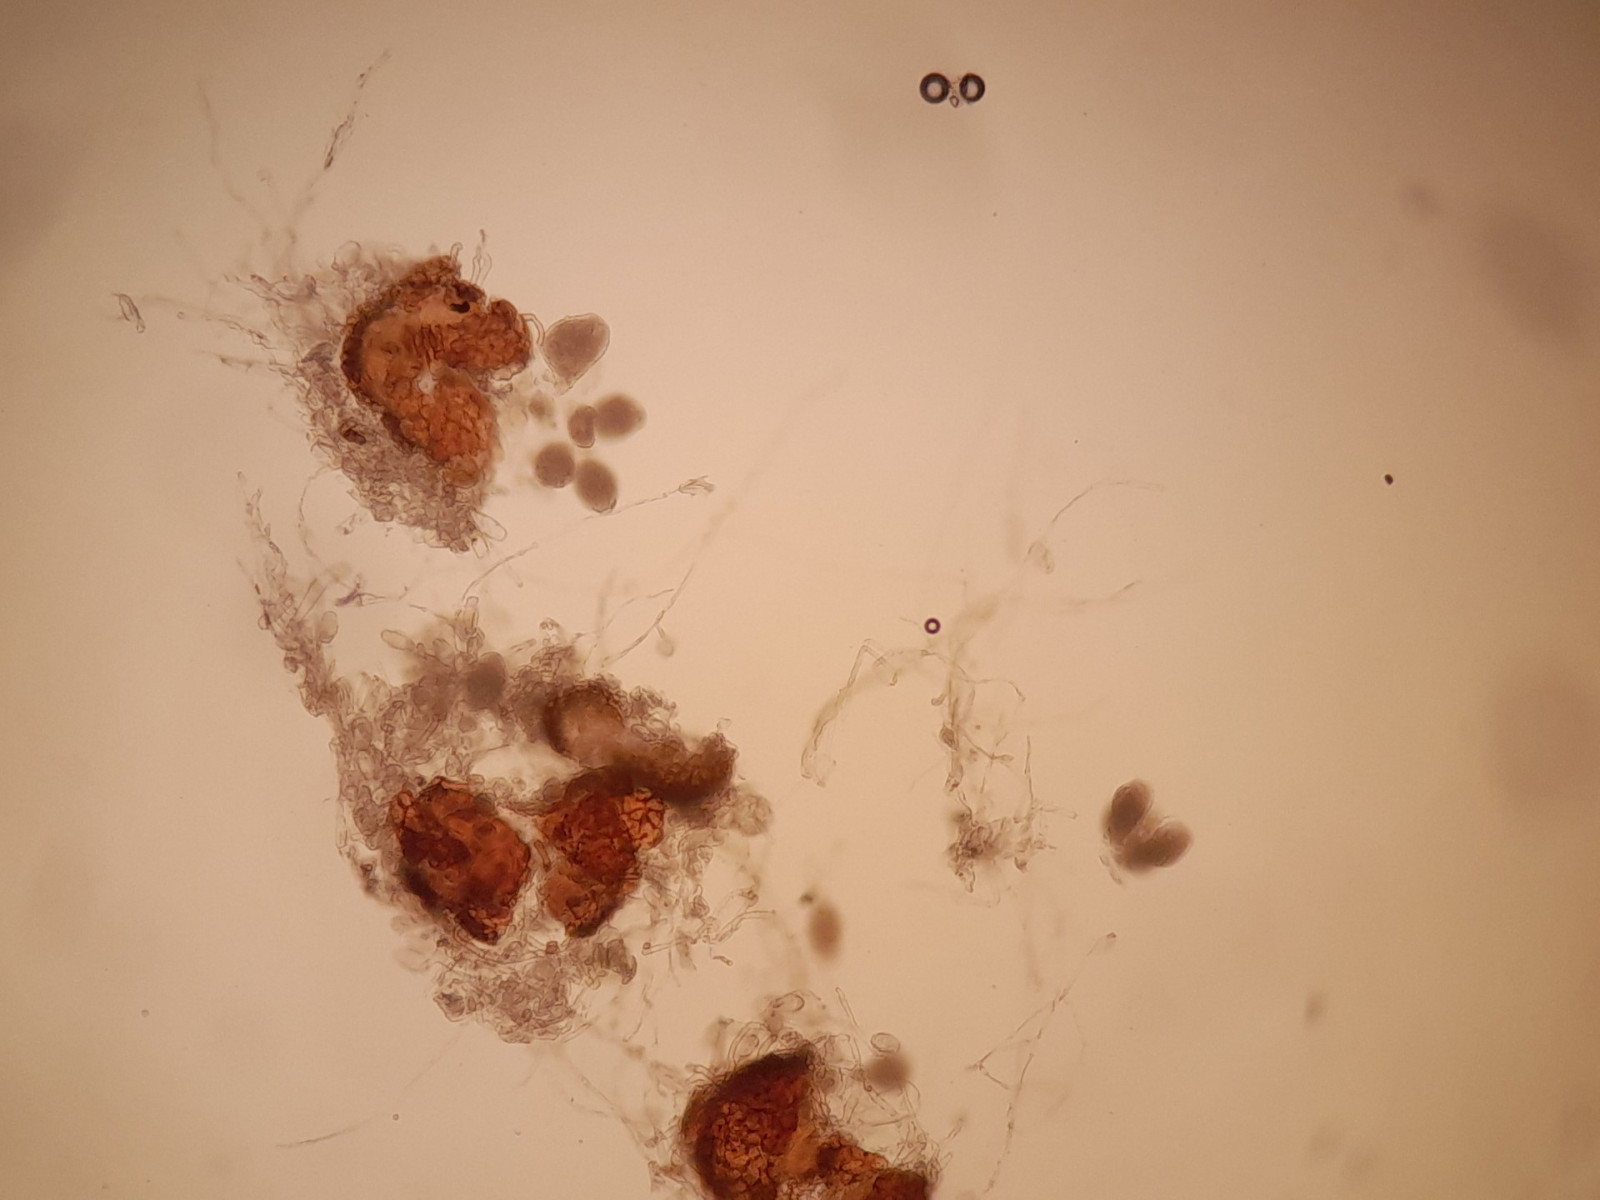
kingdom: Fungi
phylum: Ascomycota
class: Leotiomycetes
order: Helotiales
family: Erysiphaceae
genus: Golovinomyces
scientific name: Golovinomyces montagnei
